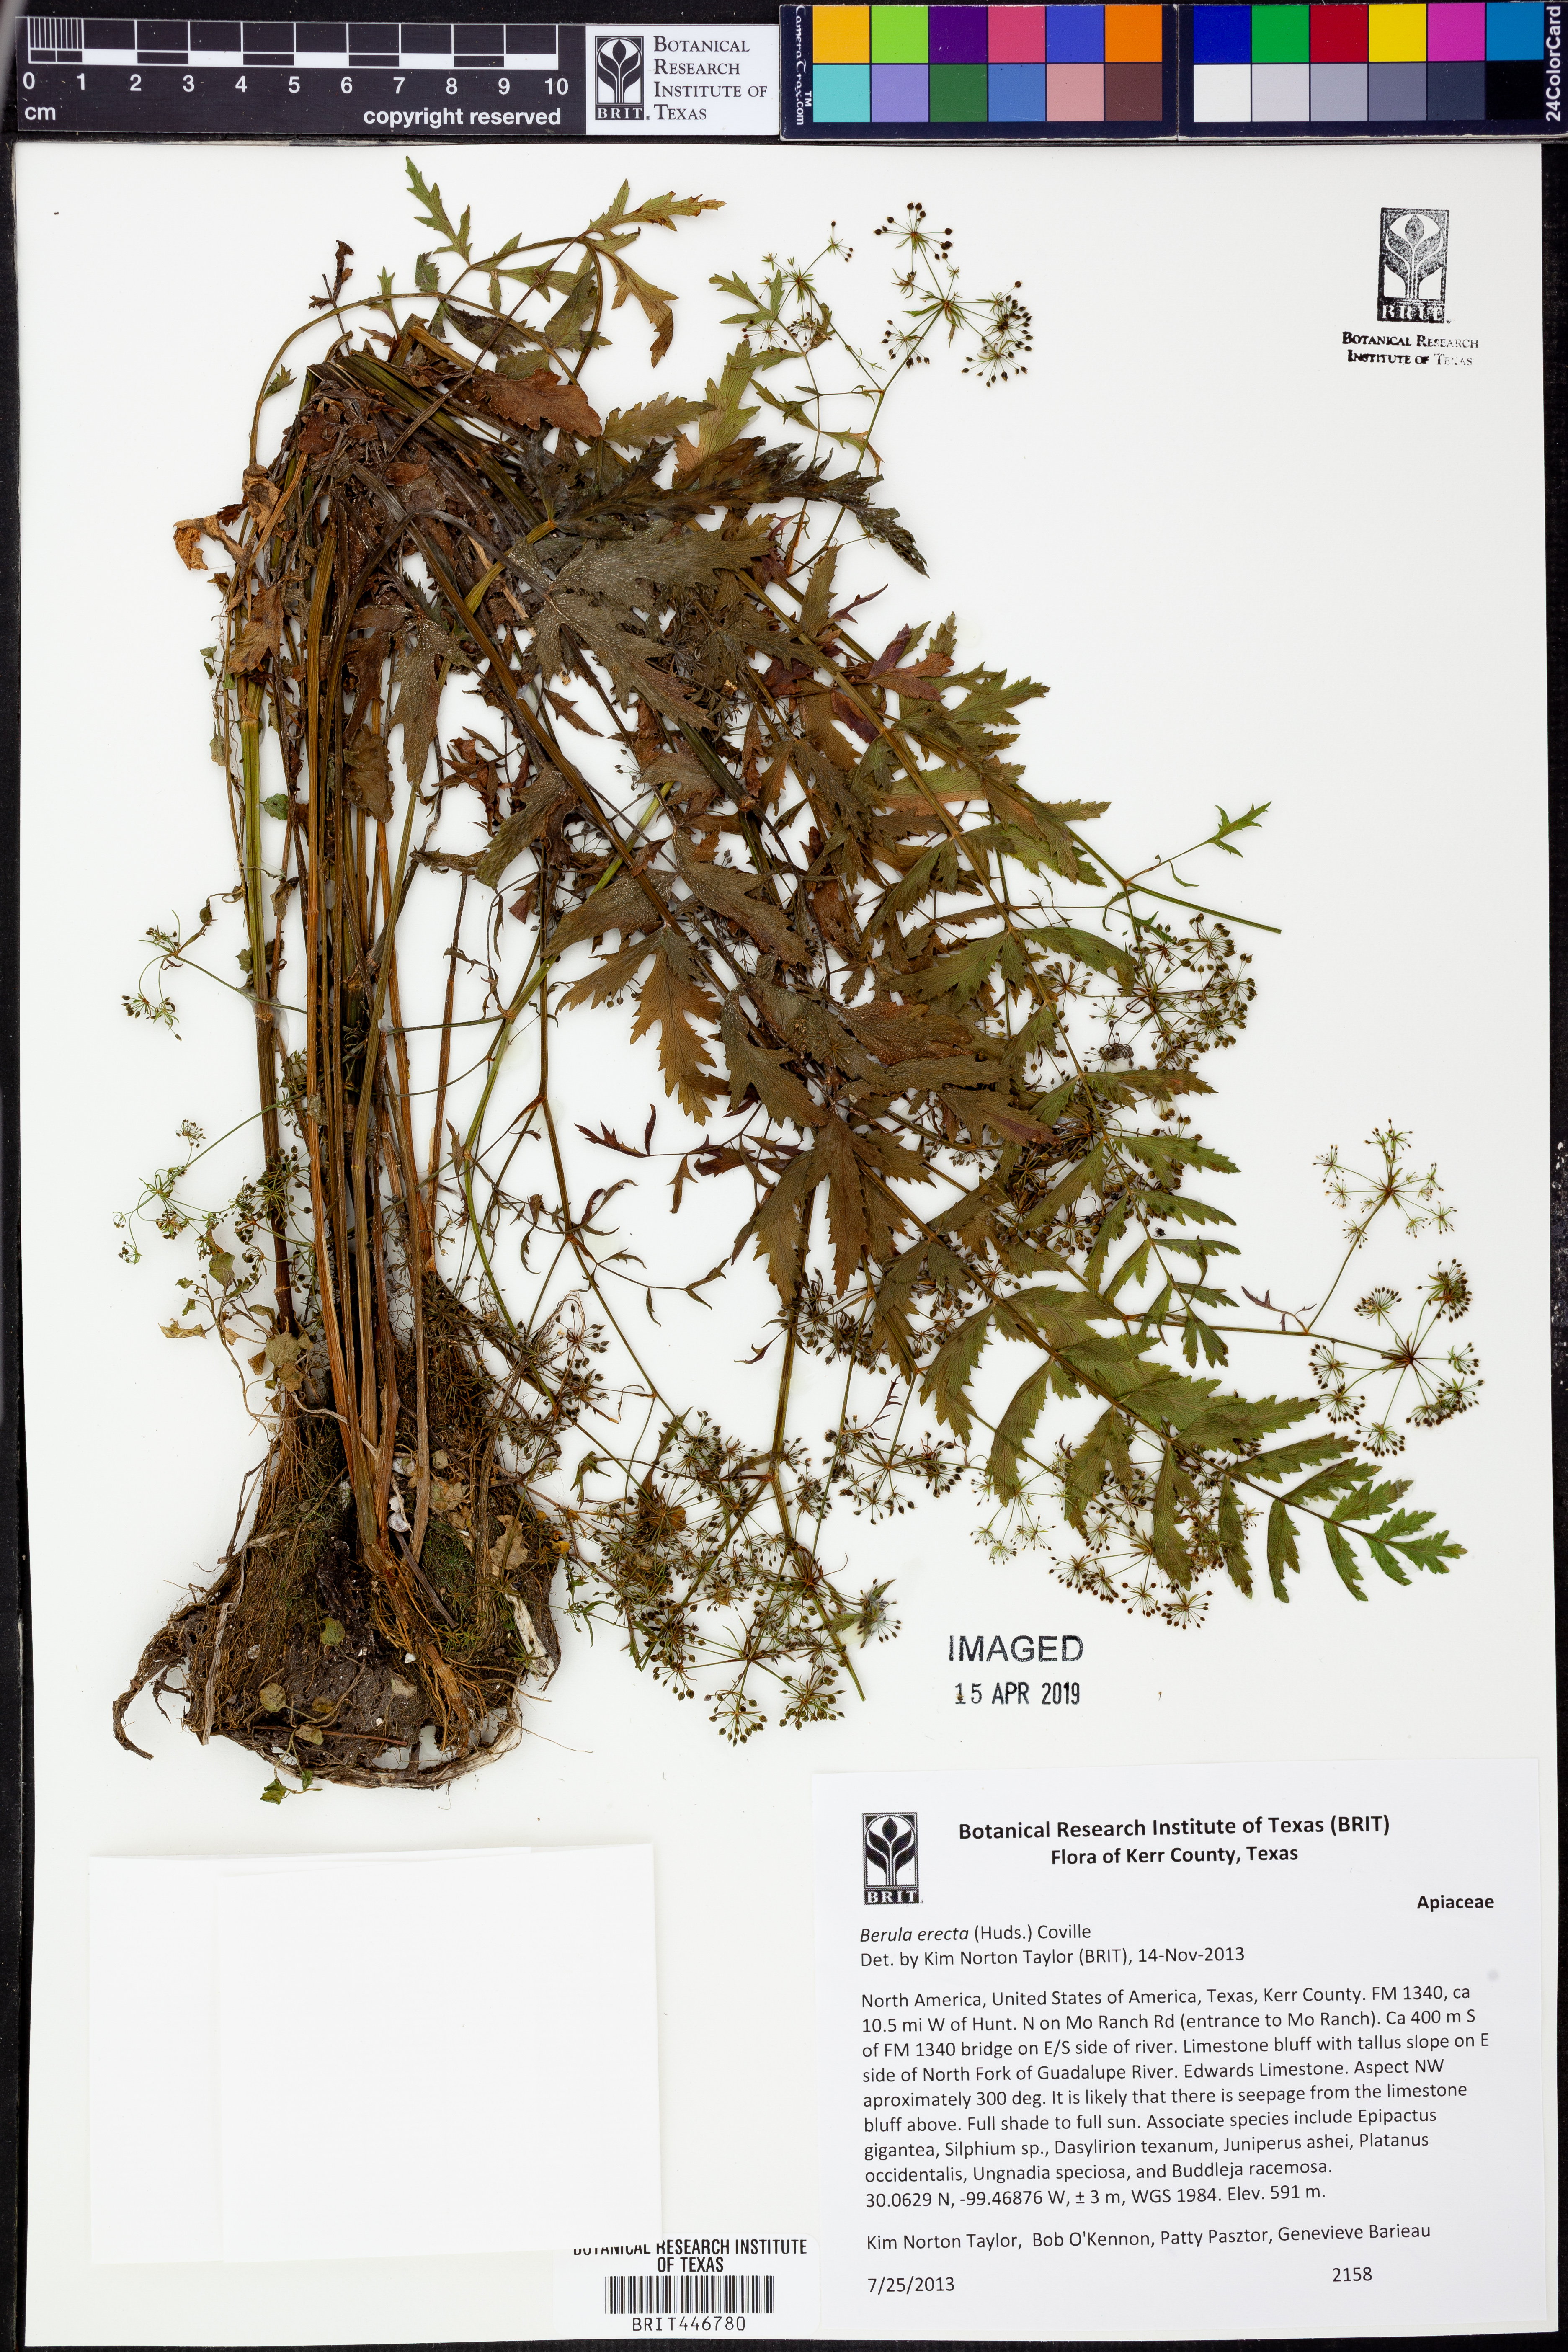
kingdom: Plantae
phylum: Tracheophyta
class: Magnoliopsida
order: Apiales
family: Apiaceae
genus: Berula
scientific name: Berula erecta
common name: Lesser water-parsnip
